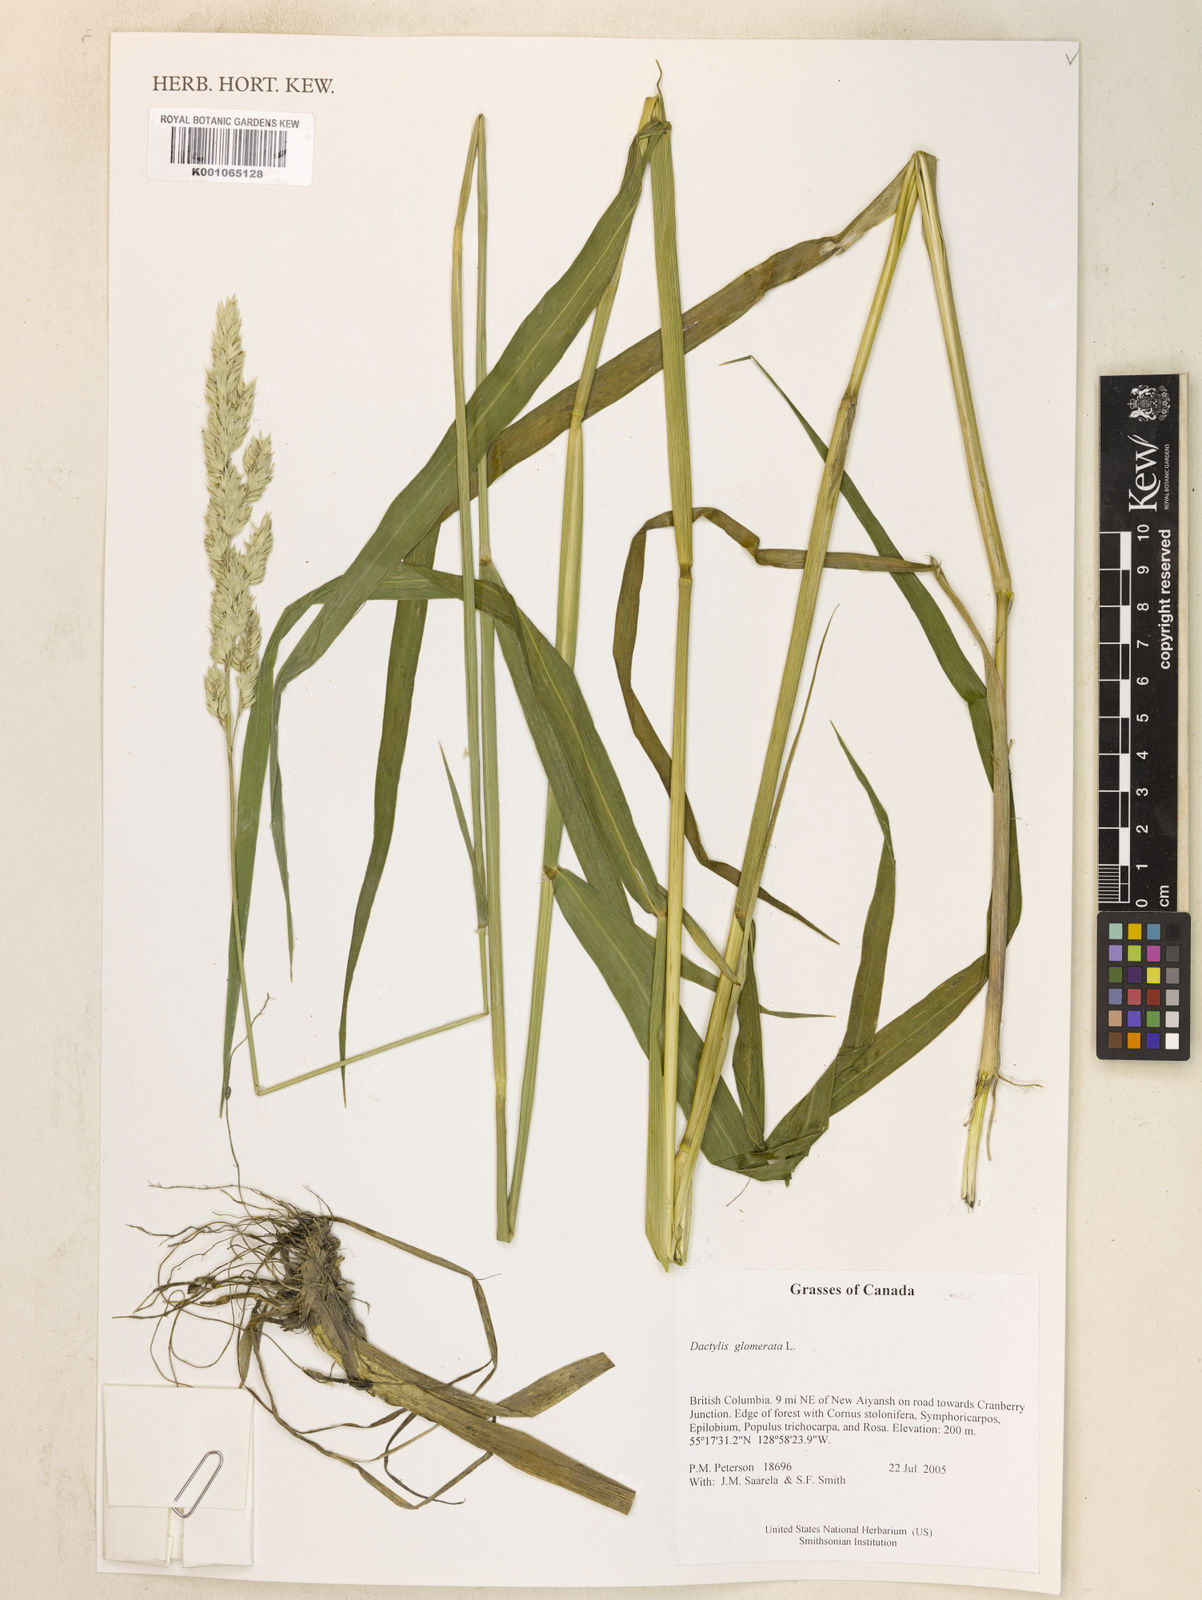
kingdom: Plantae
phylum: Tracheophyta
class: Liliopsida
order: Poales
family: Poaceae
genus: Dactylis
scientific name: Dactylis glomerata
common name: Orchardgrass
